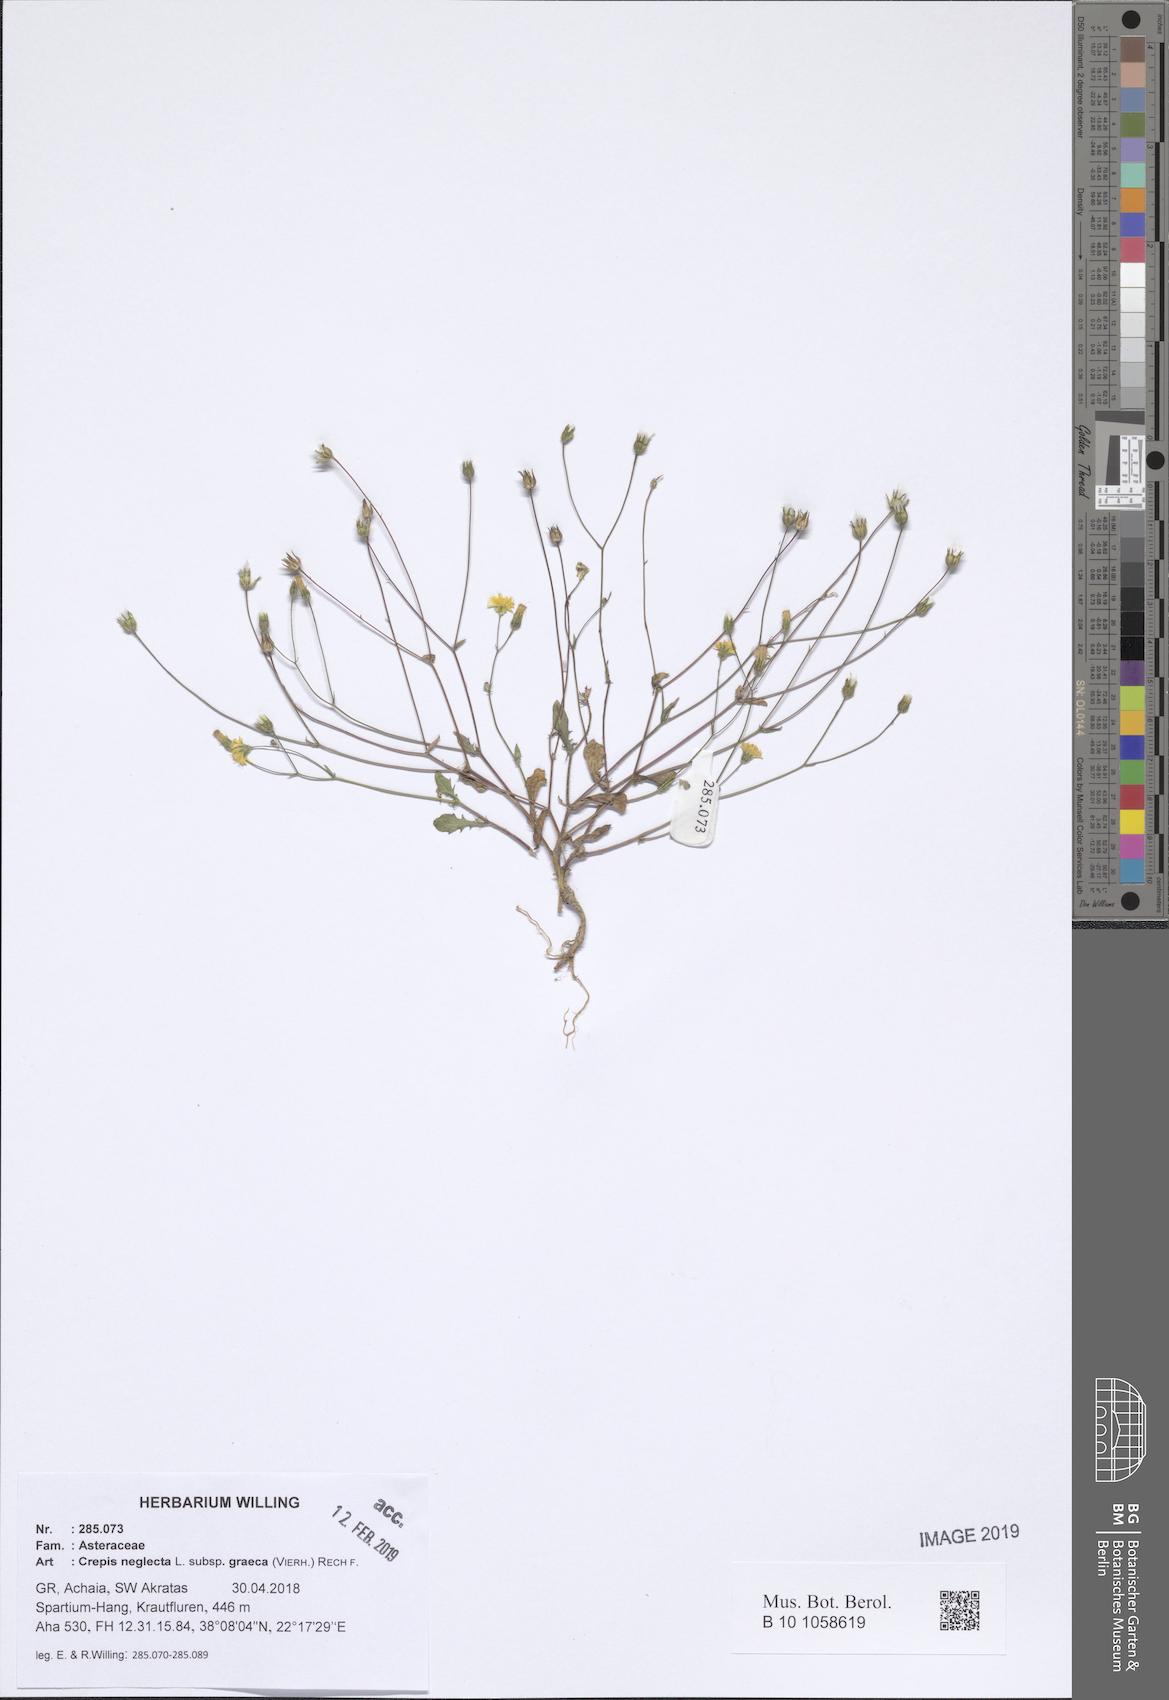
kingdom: Plantae
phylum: Tracheophyta
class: Magnoliopsida
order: Asterales
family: Asteraceae
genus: Crepis
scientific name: Crepis neglecta
